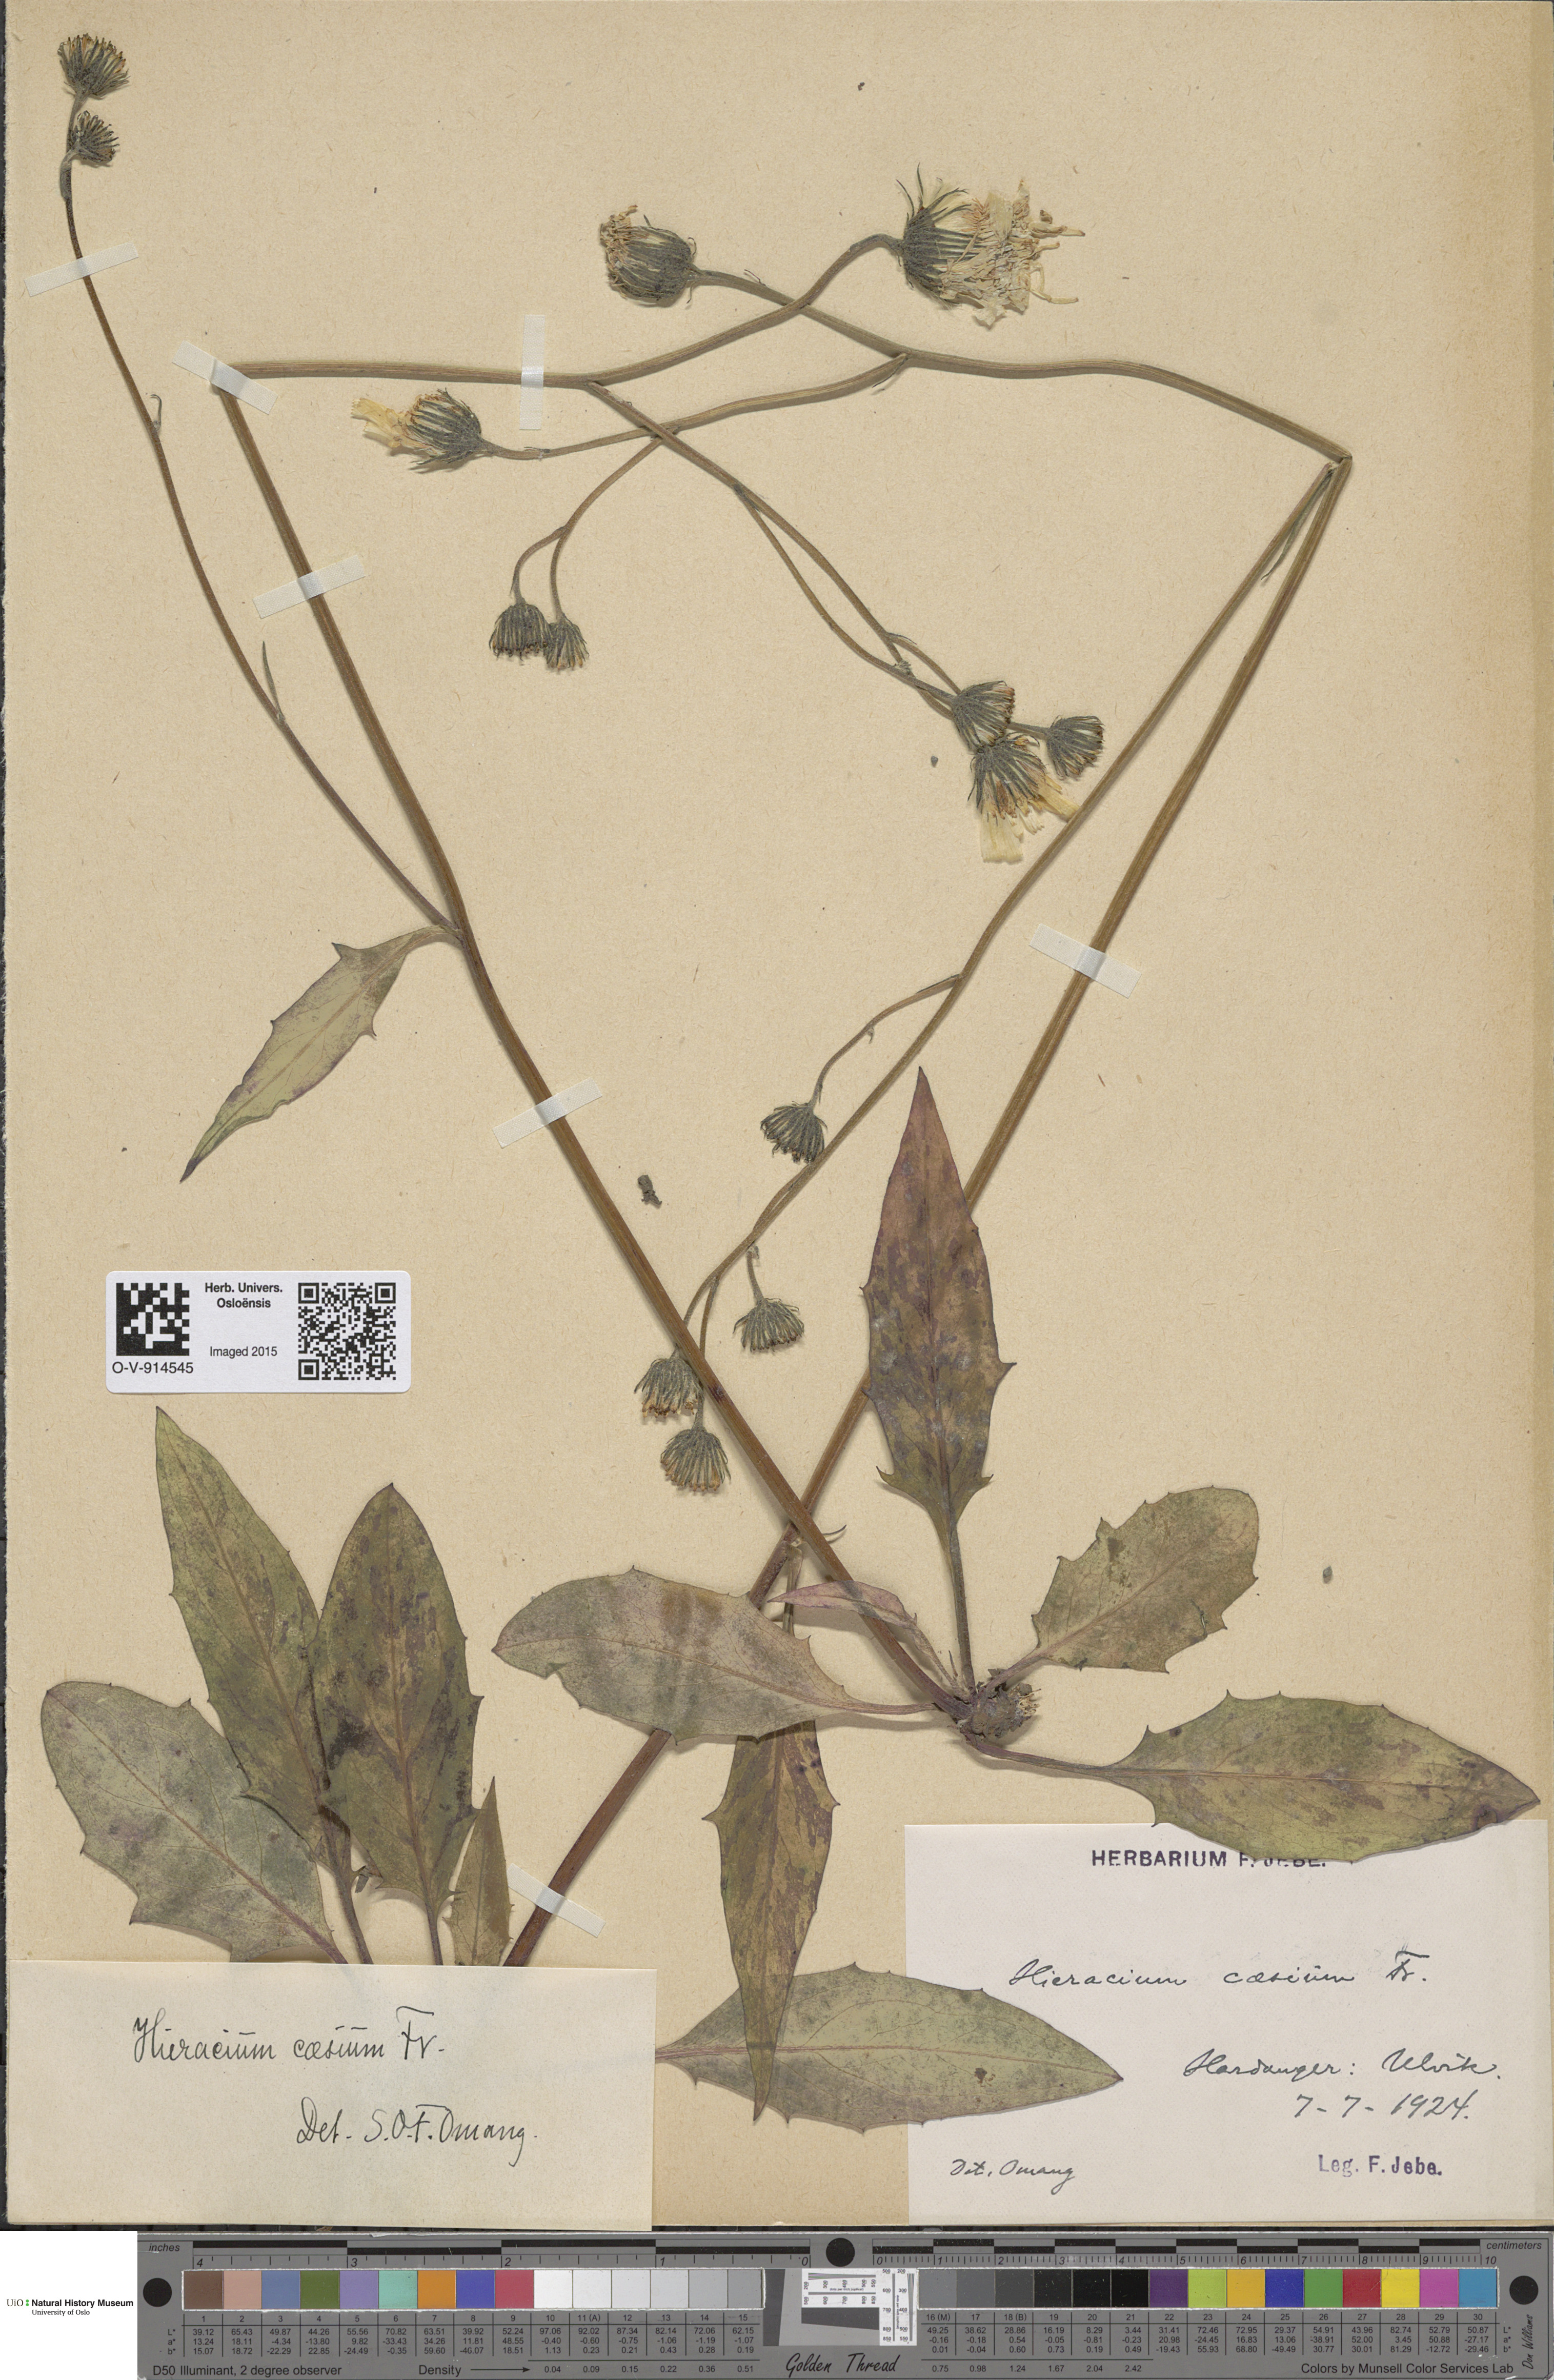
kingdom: Plantae
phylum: Tracheophyta
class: Magnoliopsida
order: Asterales
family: Asteraceae
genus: Hieracium
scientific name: Hieracium caesium
